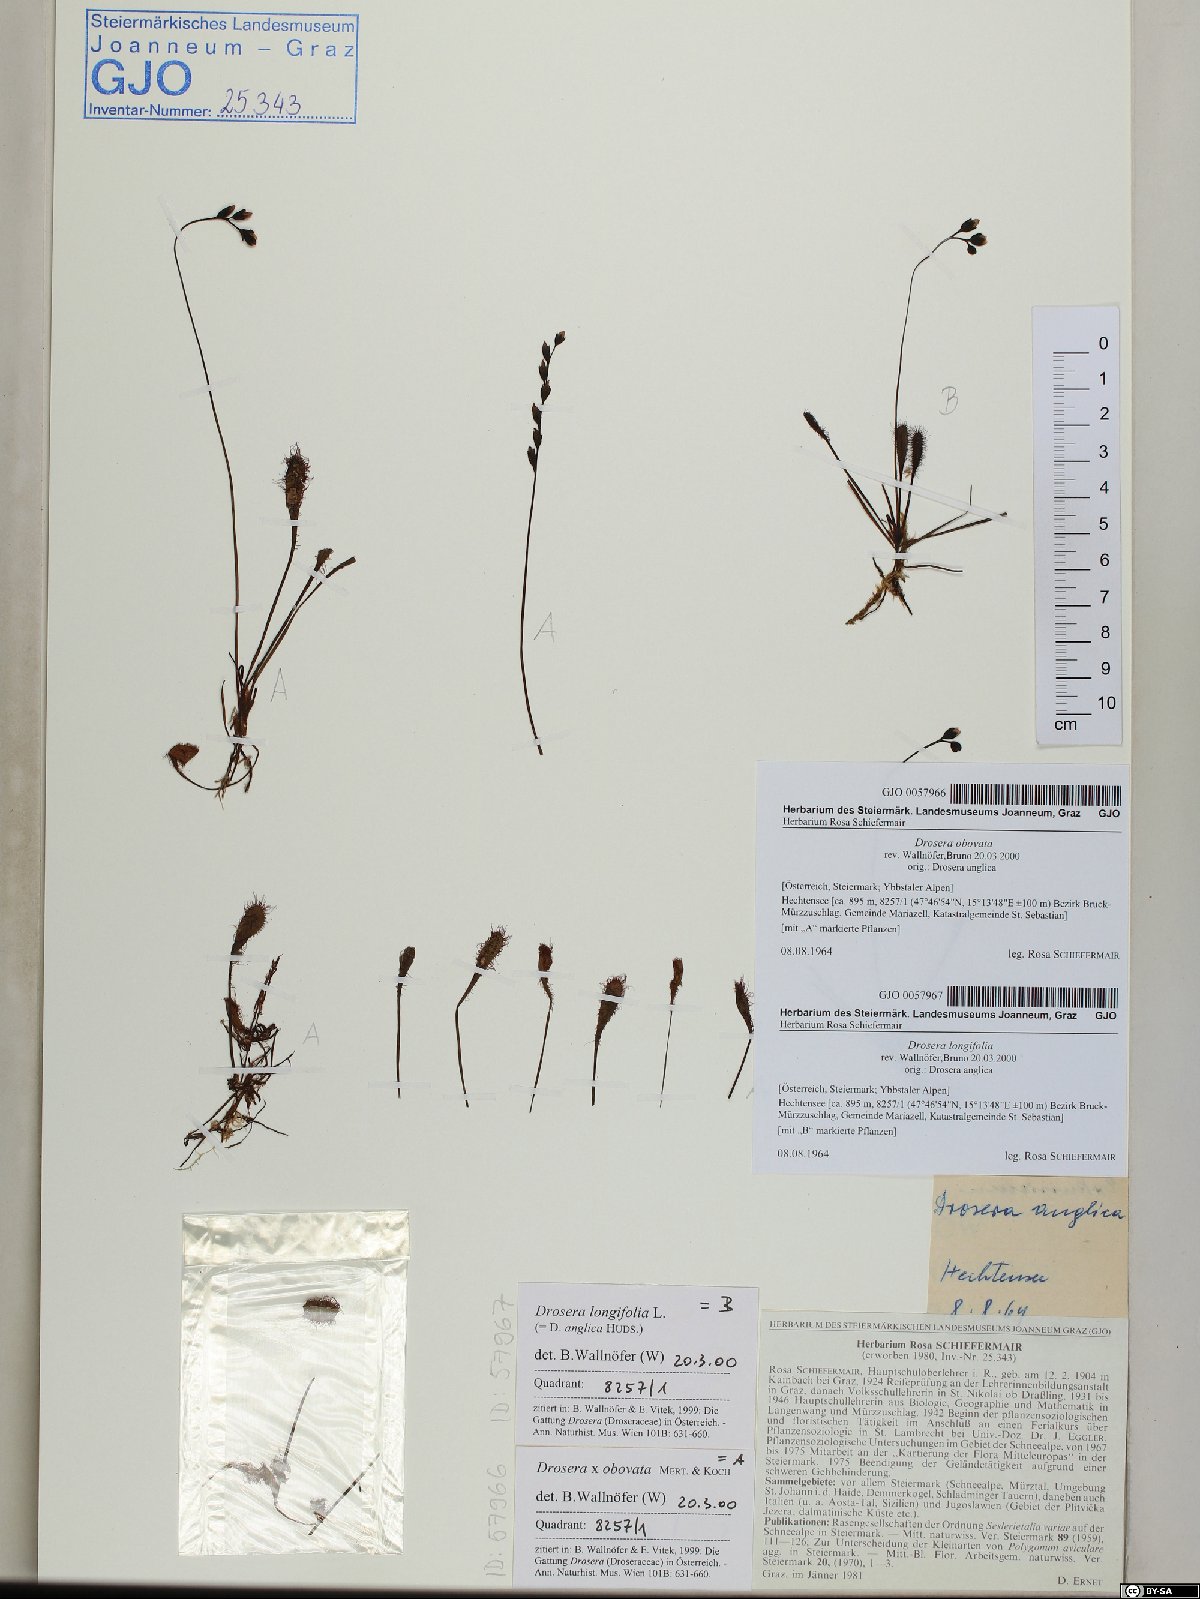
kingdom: Plantae
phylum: Tracheophyta
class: Magnoliopsida
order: Caryophyllales
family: Droseraceae
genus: Drosera
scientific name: Drosera anglica
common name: Great sundew
